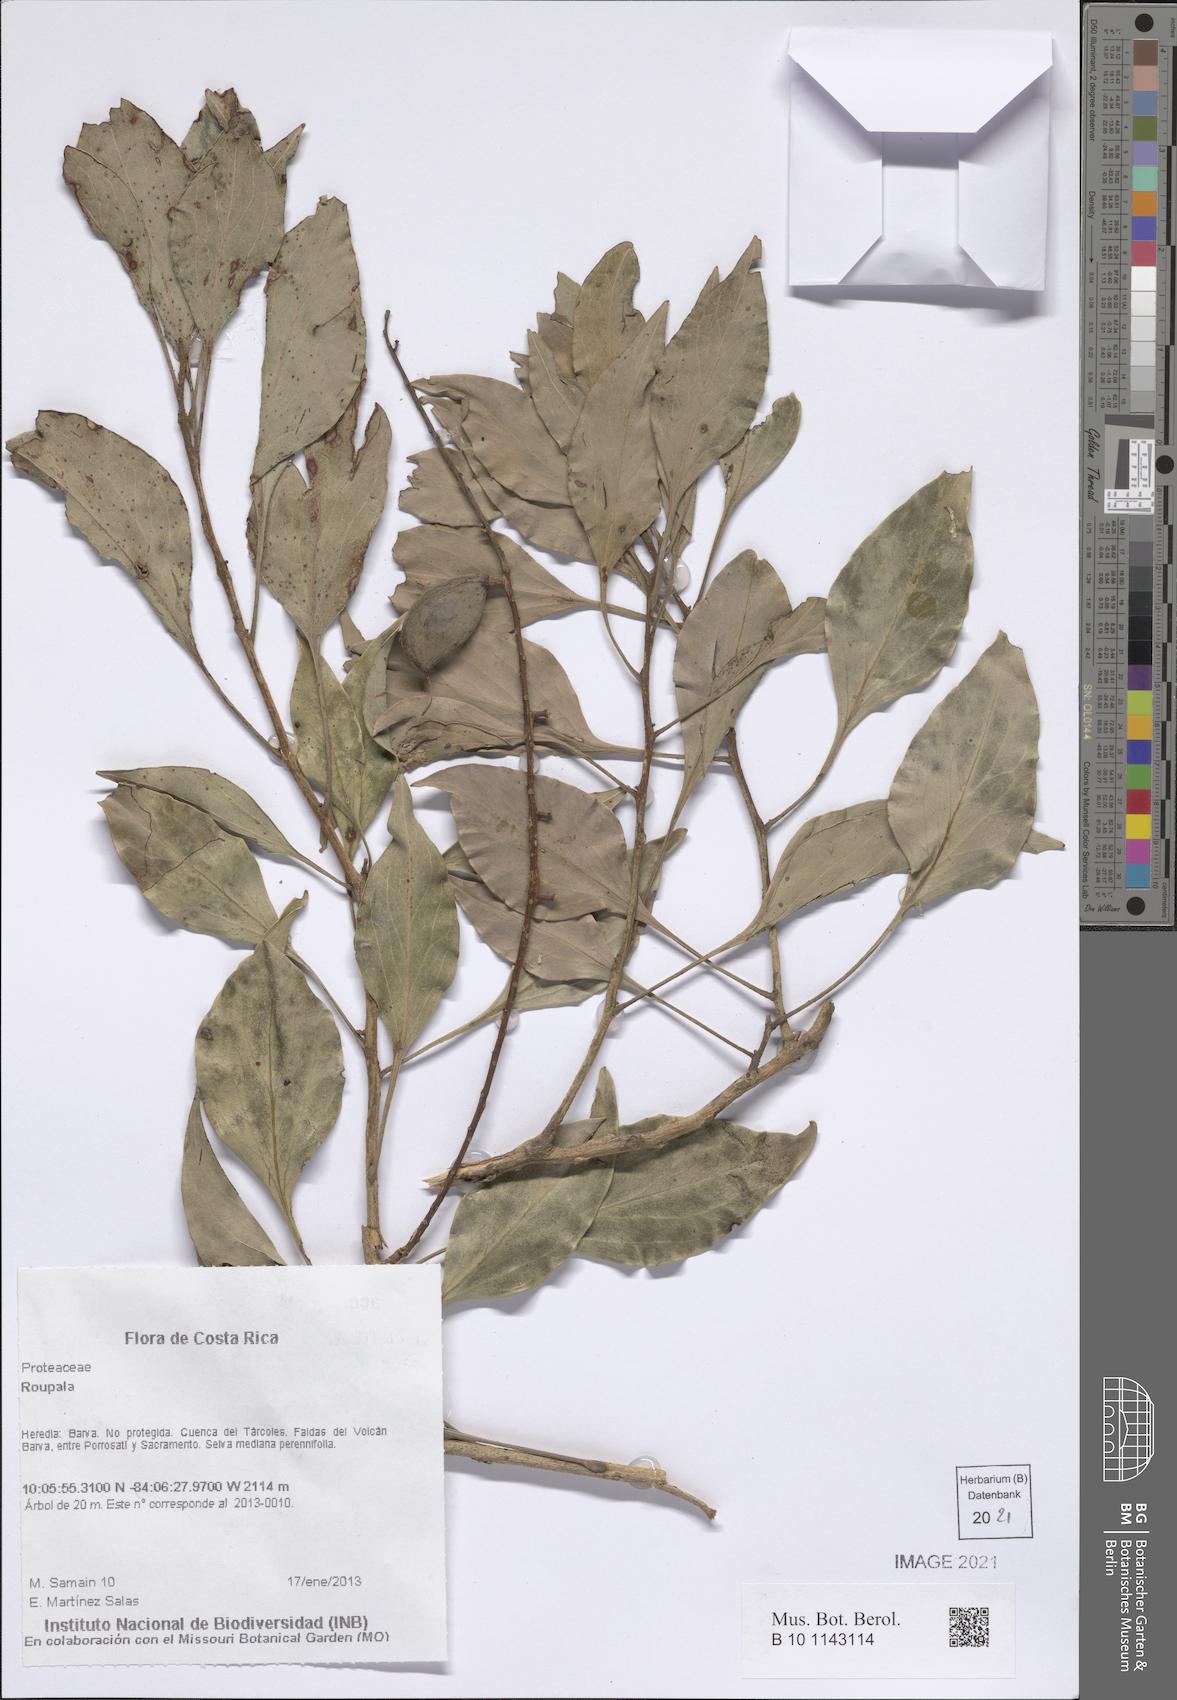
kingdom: Plantae
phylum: Tracheophyta
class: Magnoliopsida
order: Proteales
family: Proteaceae
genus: Roupala
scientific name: Roupala
